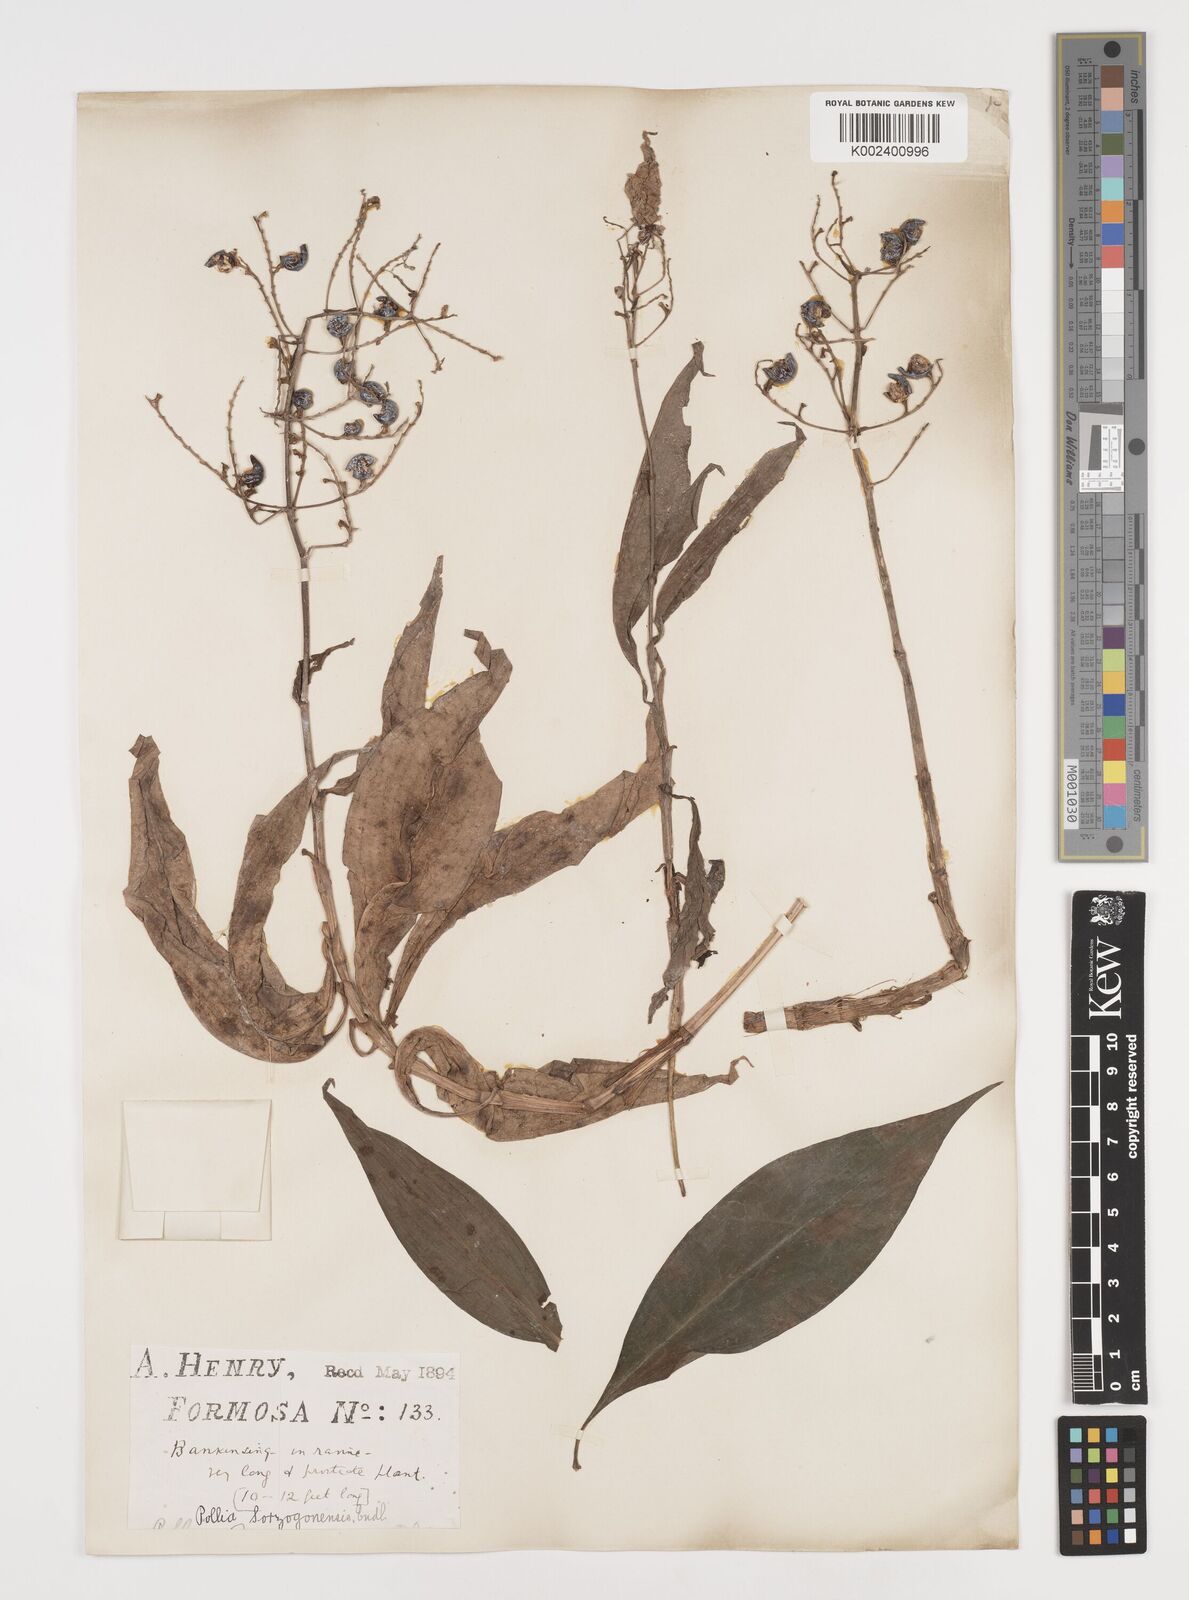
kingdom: Plantae
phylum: Tracheophyta
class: Liliopsida
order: Commelinales
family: Commelinaceae
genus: Pollia
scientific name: Pollia secundiflora
